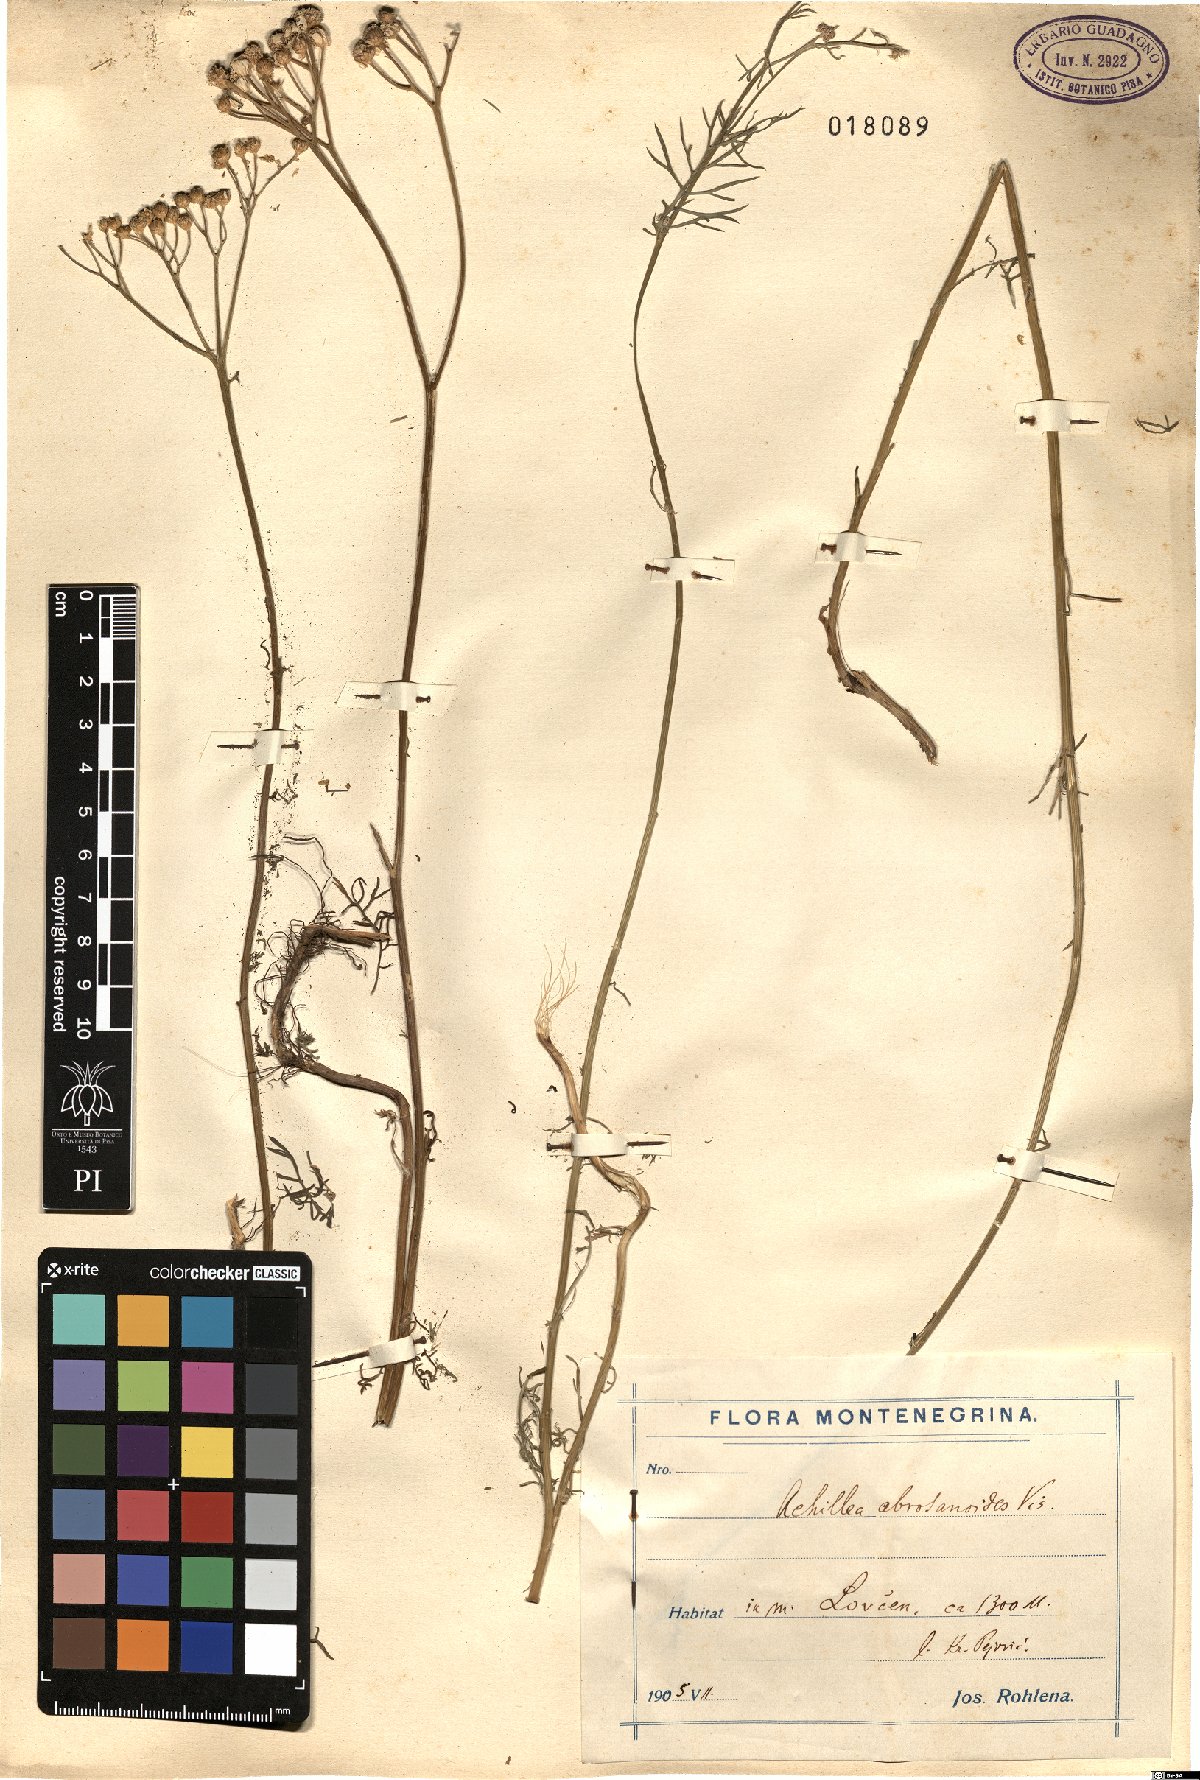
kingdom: Plantae
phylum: Tracheophyta
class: Magnoliopsida
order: Asterales
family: Asteraceae
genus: Achillea
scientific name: Achillea abrotanoides
